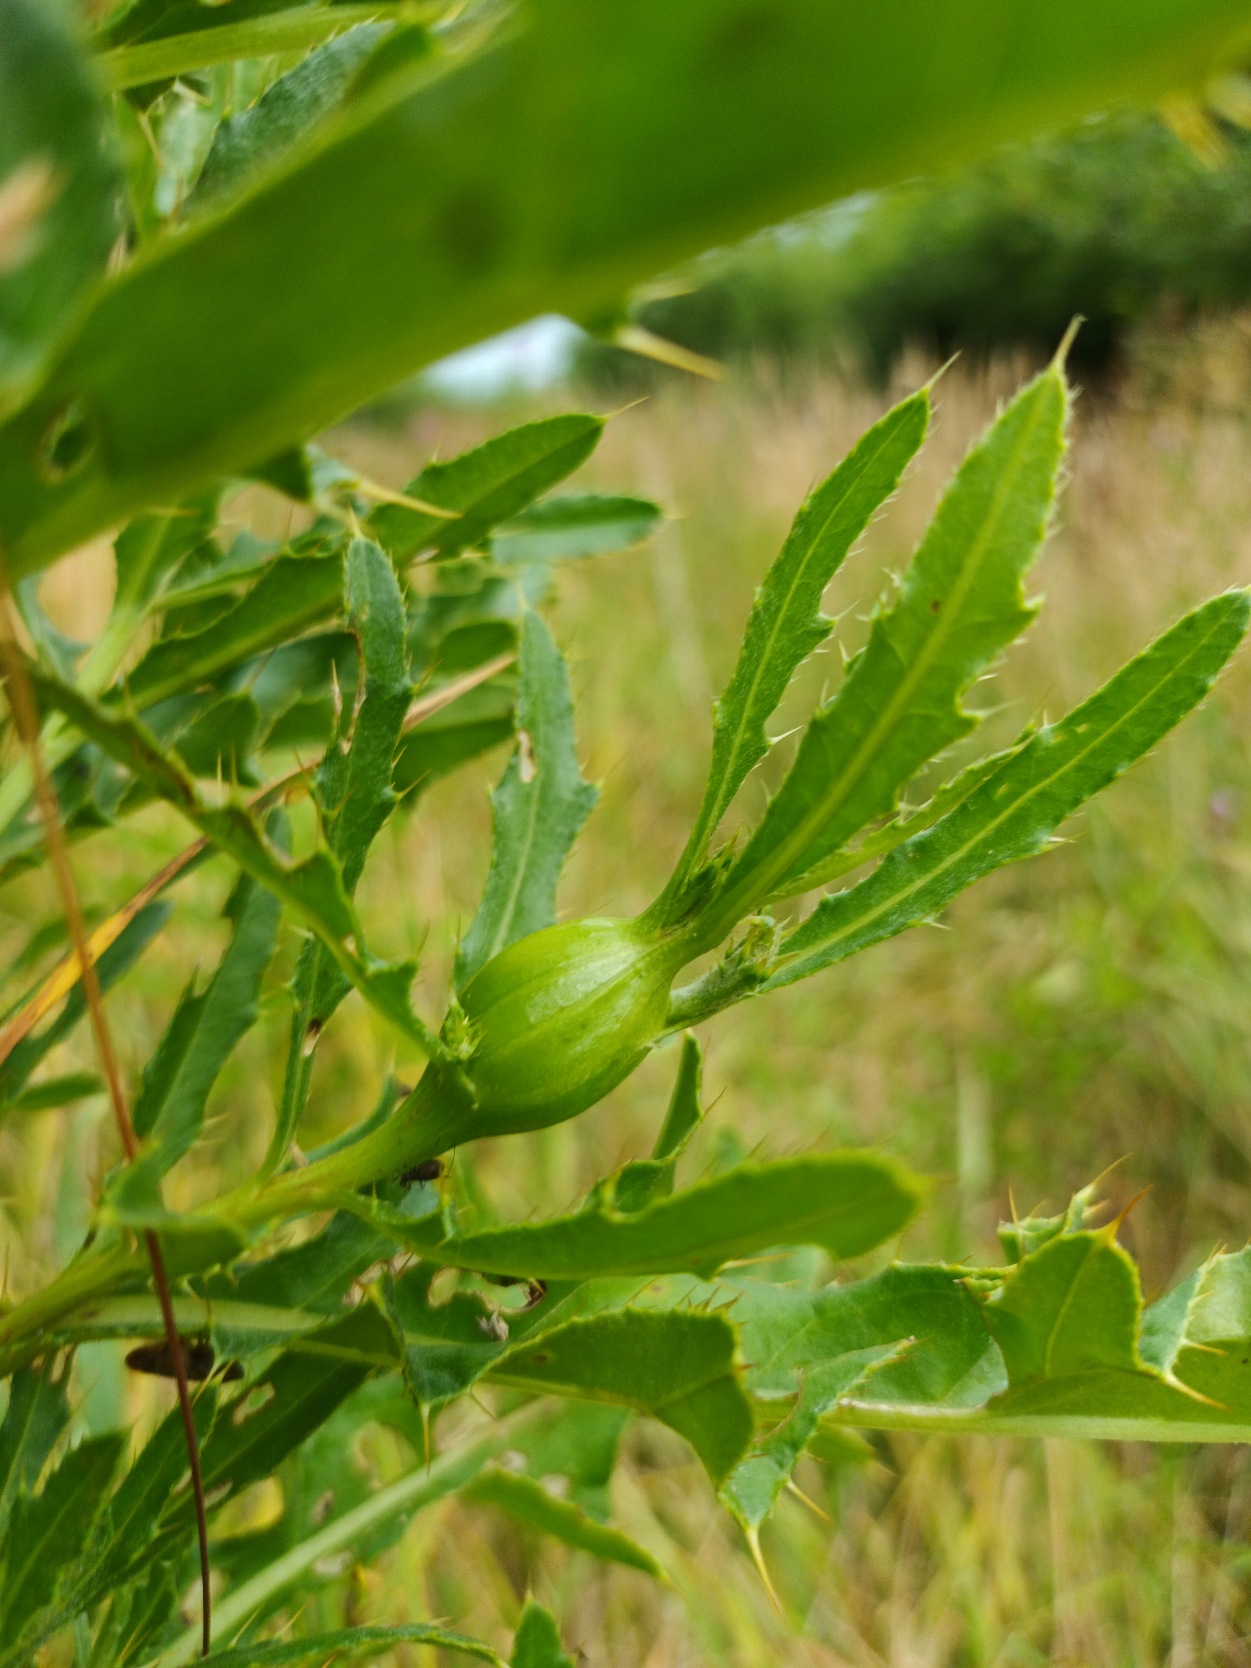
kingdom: Animalia
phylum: Arthropoda
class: Insecta
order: Diptera
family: Tephritidae
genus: Urophora
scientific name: Urophora cardui
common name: Tidselbåndflue
